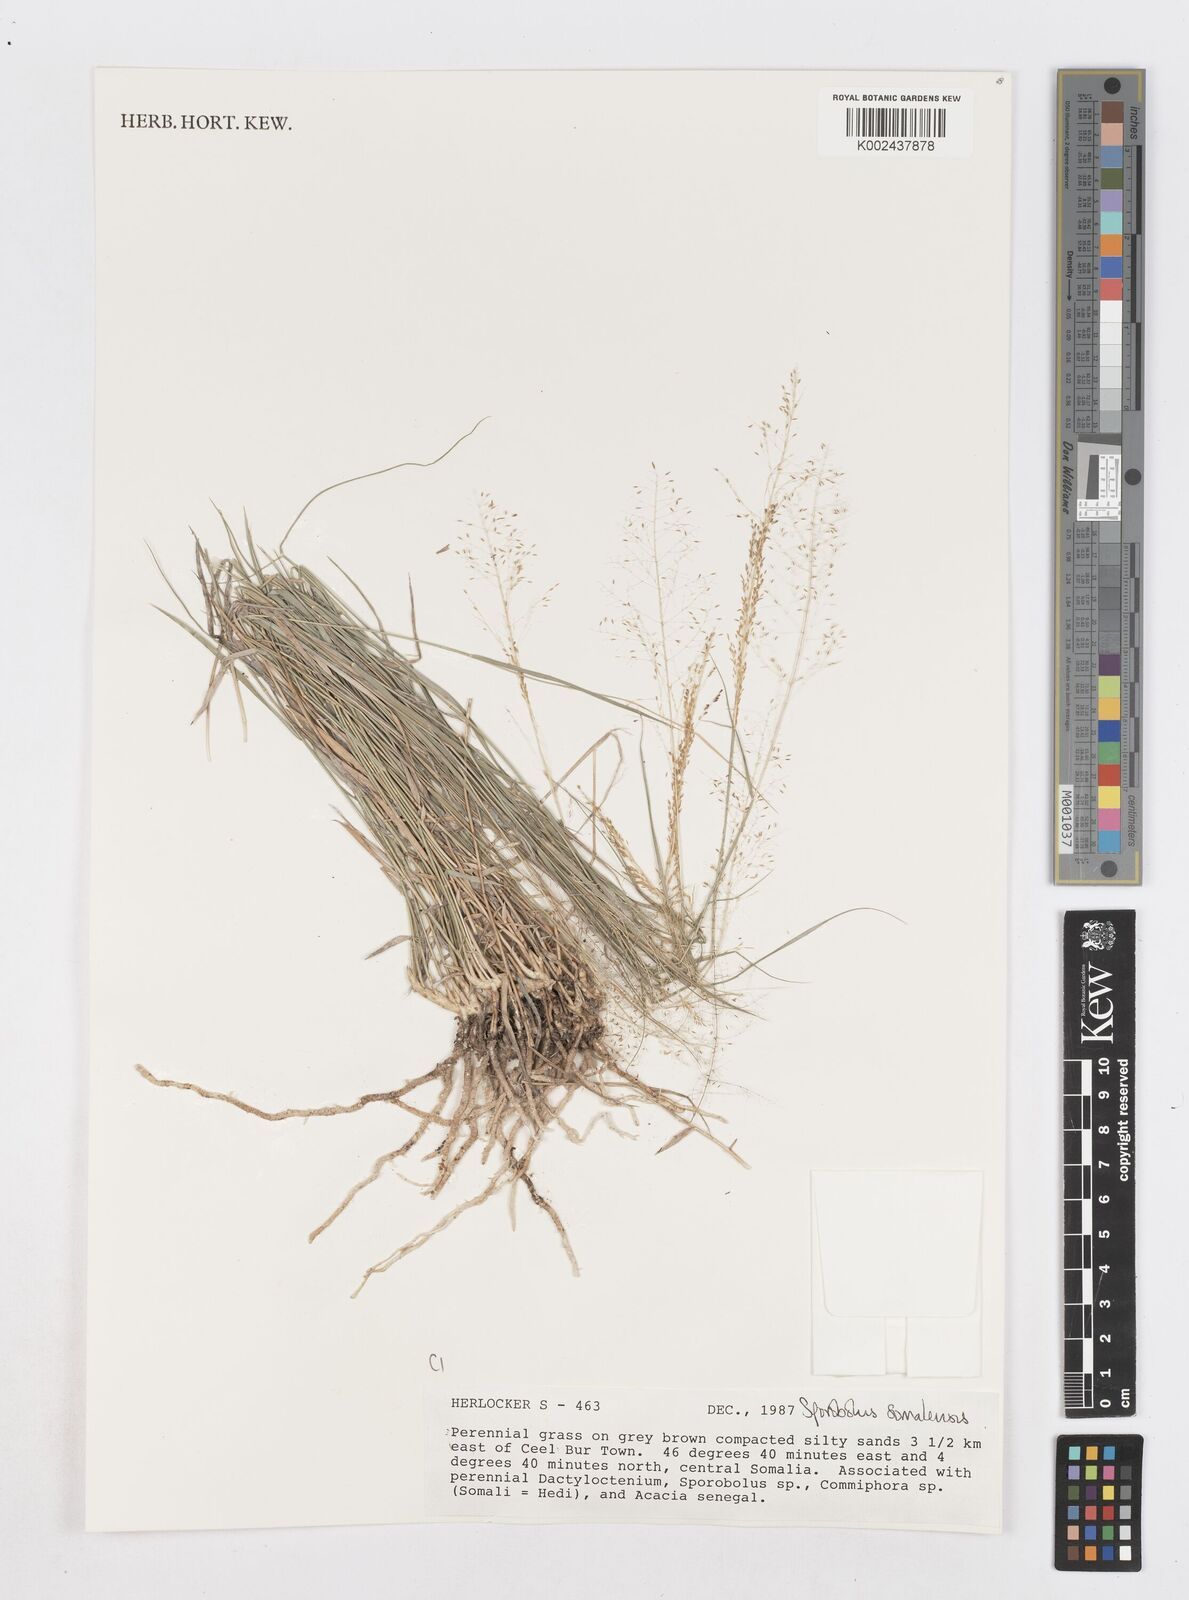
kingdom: Plantae
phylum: Tracheophyta
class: Liliopsida
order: Poales
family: Poaceae
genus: Sporobolus
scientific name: Sporobolus compactus
